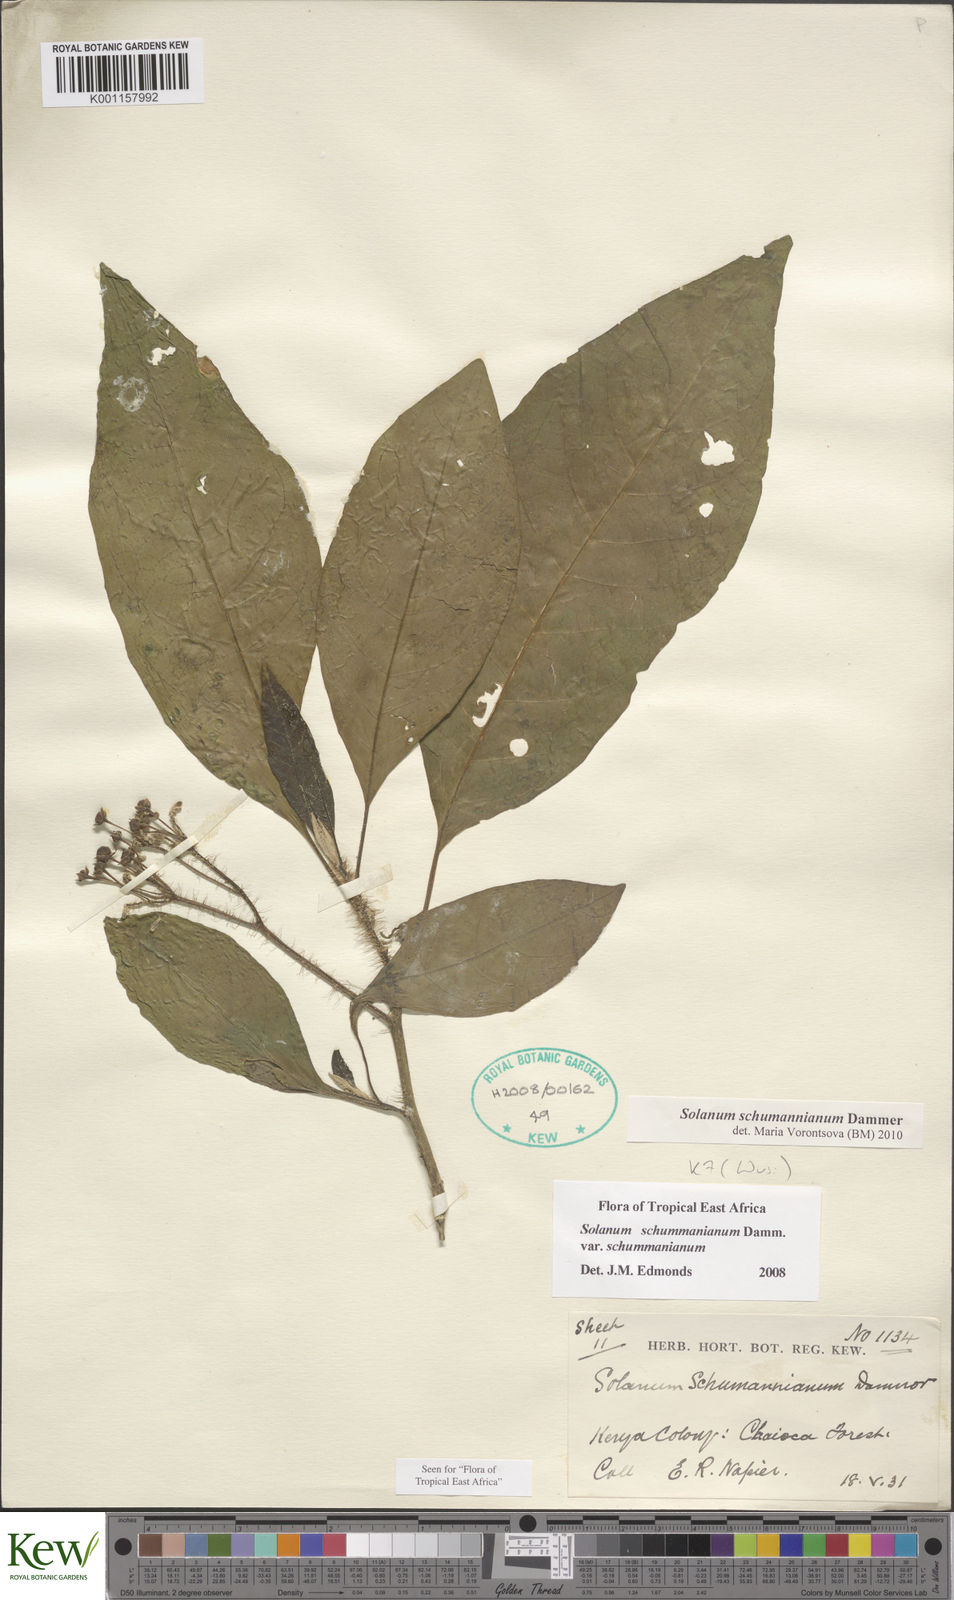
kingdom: Plantae
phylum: Tracheophyta
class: Magnoliopsida
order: Solanales
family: Solanaceae
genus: Solanum
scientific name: Solanum schumannianum
